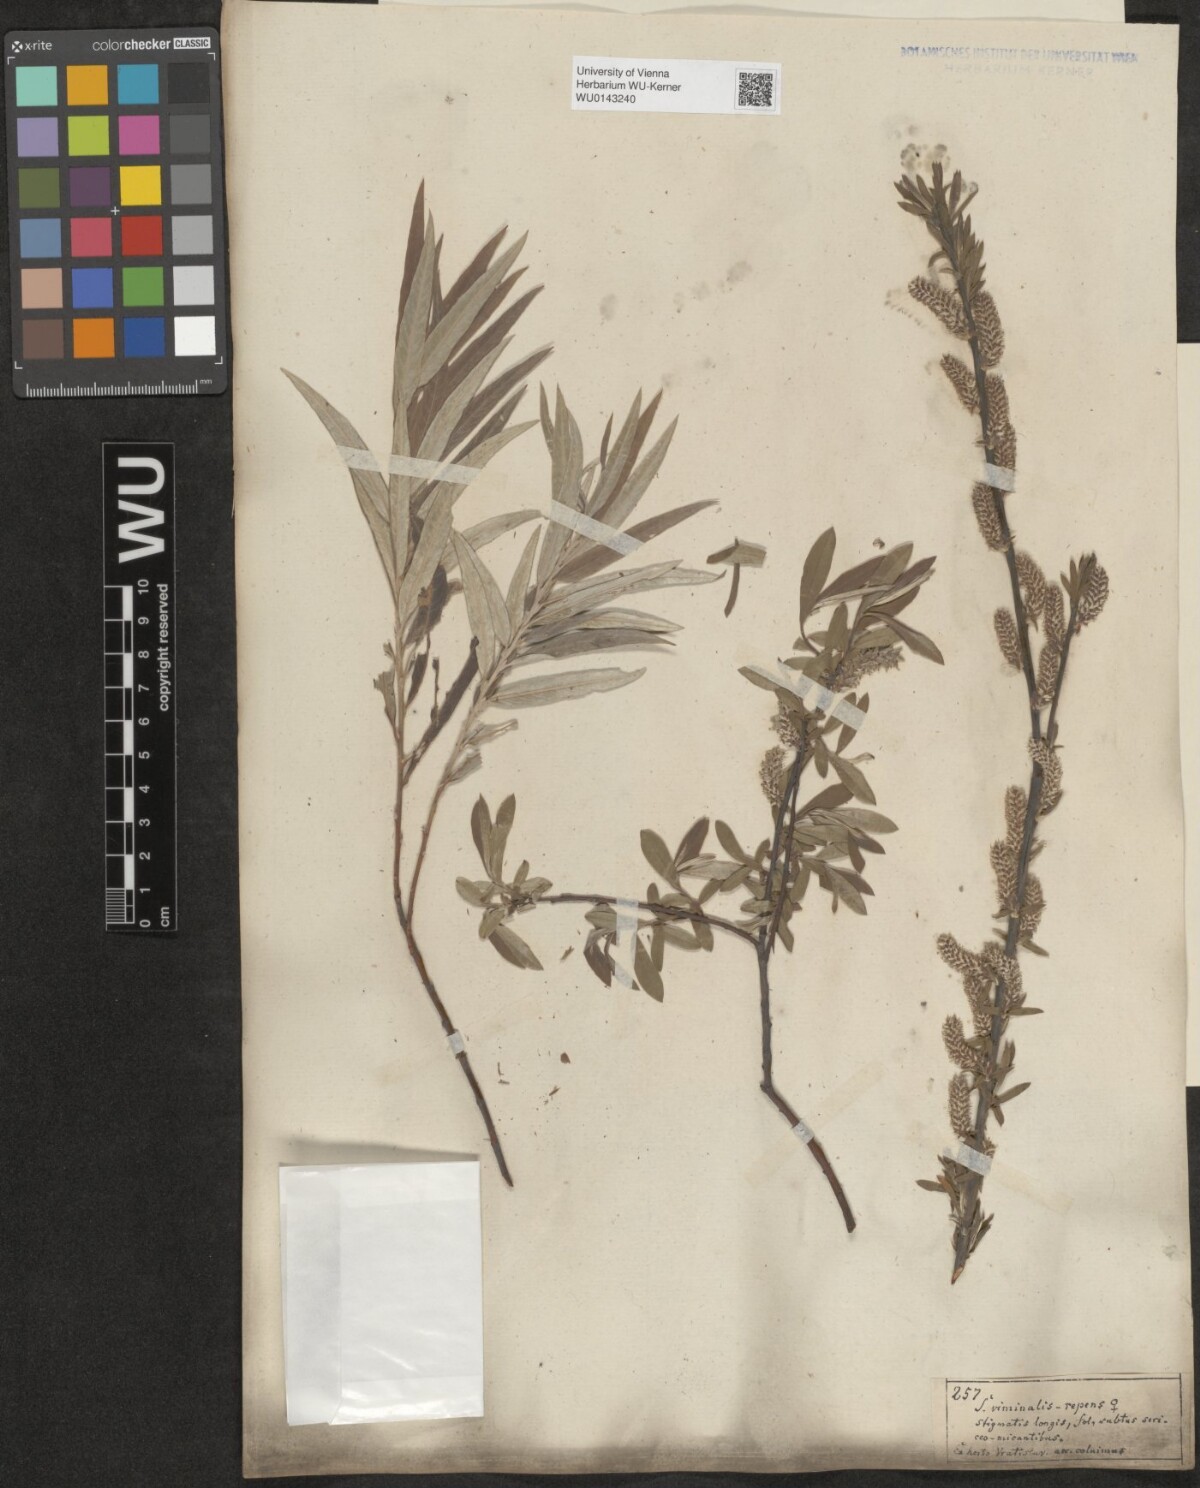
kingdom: Plantae
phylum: Tracheophyta
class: Magnoliopsida
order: Malpighiales
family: Salicaceae
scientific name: Salicaceae
